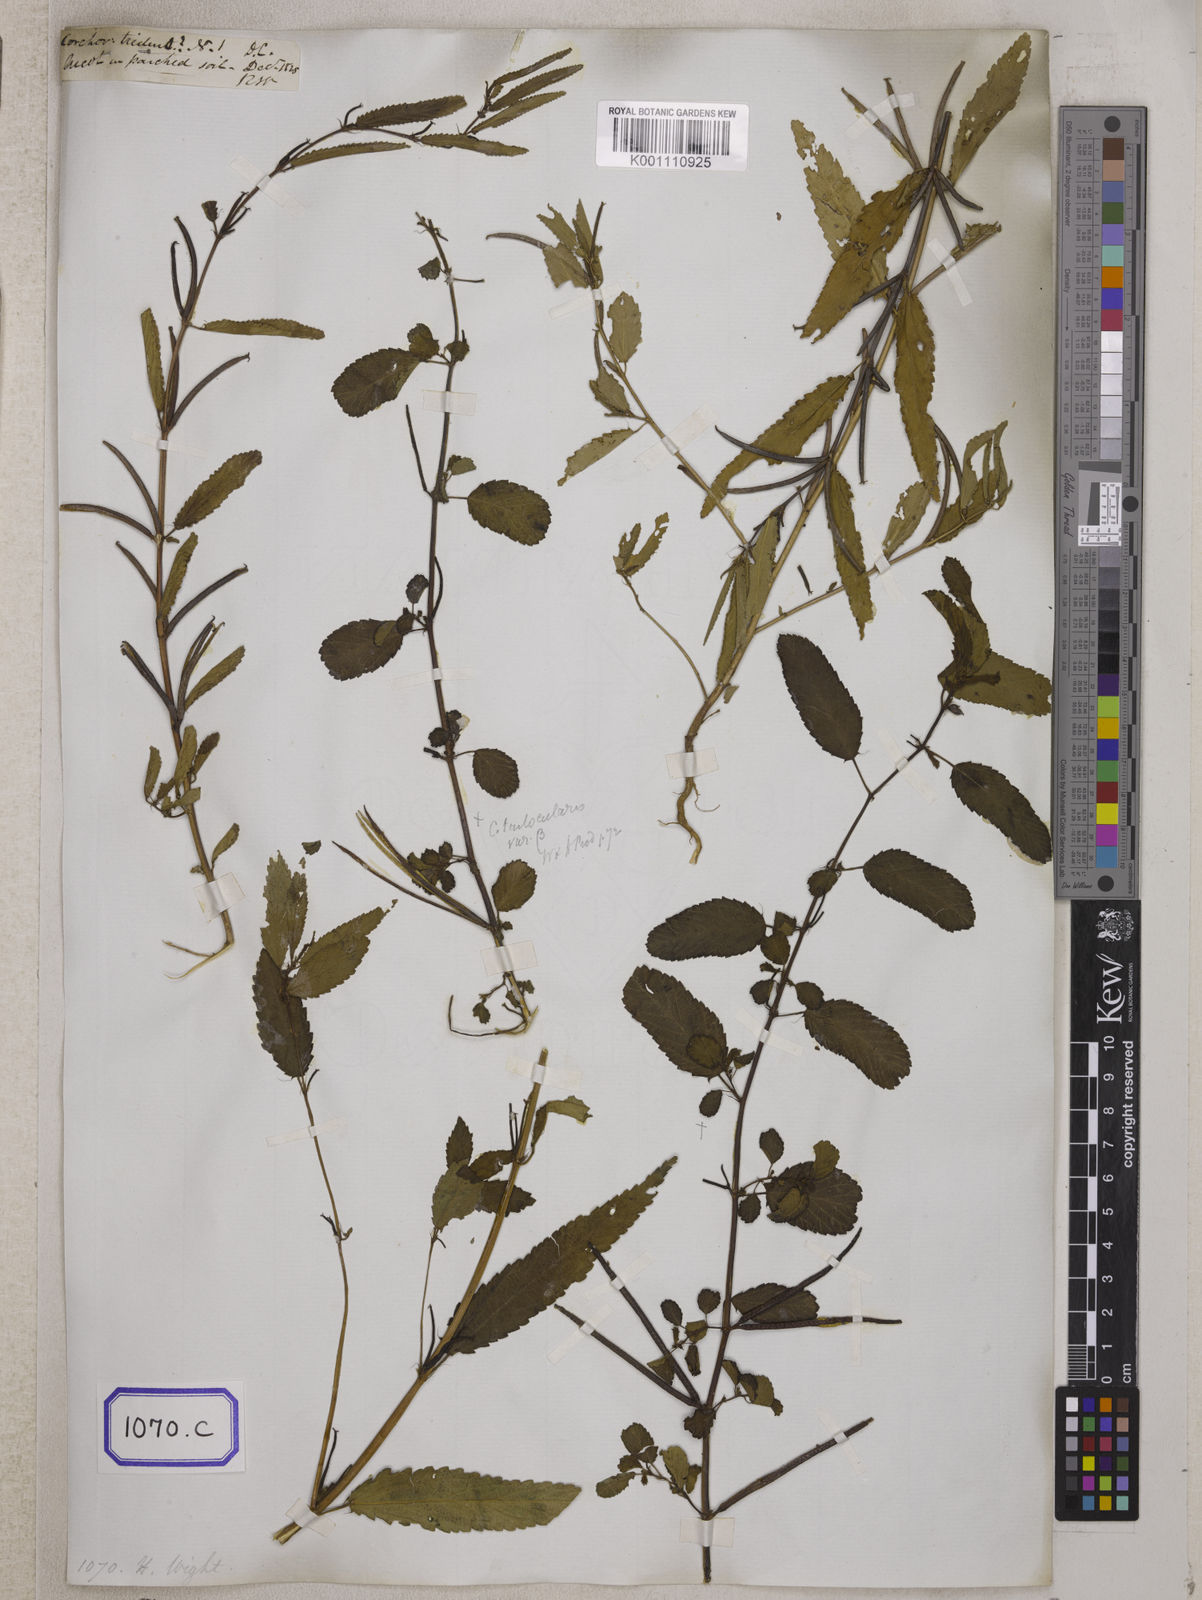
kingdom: Plantae
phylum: Tracheophyta
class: Magnoliopsida
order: Malvales
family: Malvaceae
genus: Corchorus
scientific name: Corchorus
